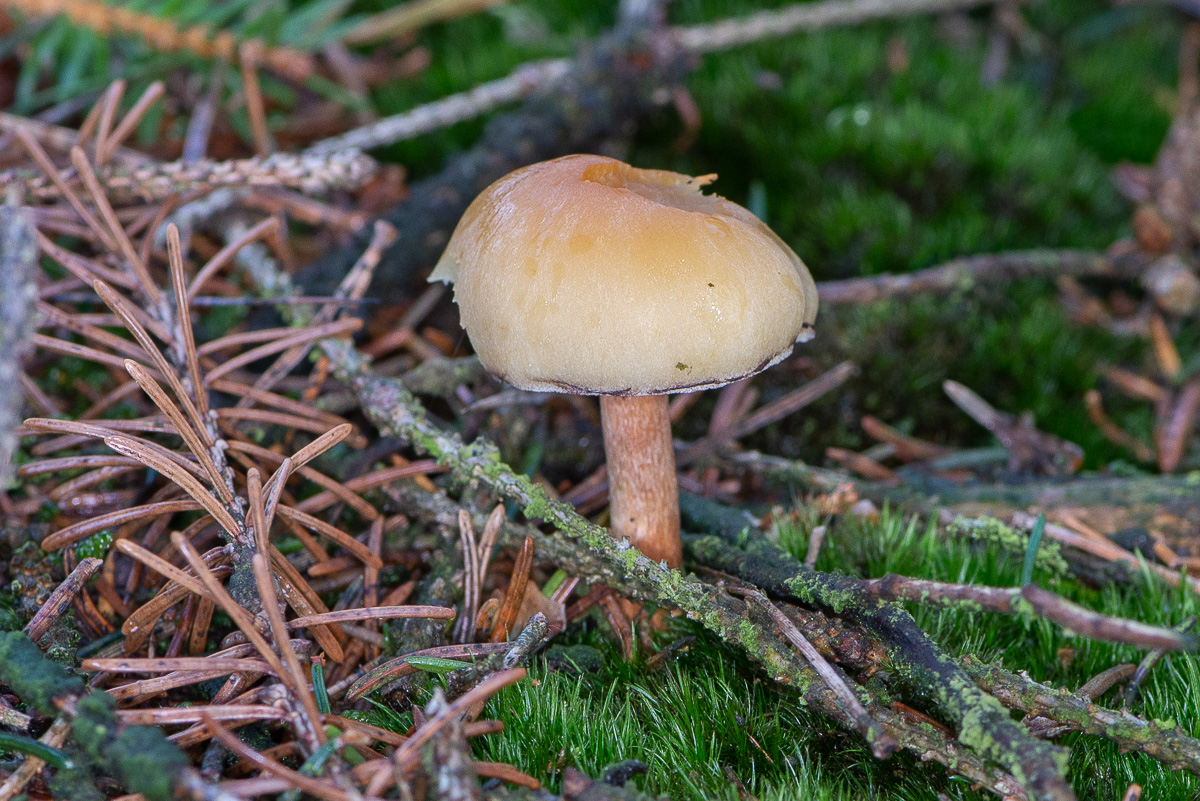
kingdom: Fungi
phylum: Basidiomycota
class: Agaricomycetes
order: Agaricales
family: Strophariaceae
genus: Hypholoma
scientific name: Hypholoma capnoides
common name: gran-svovlhat
